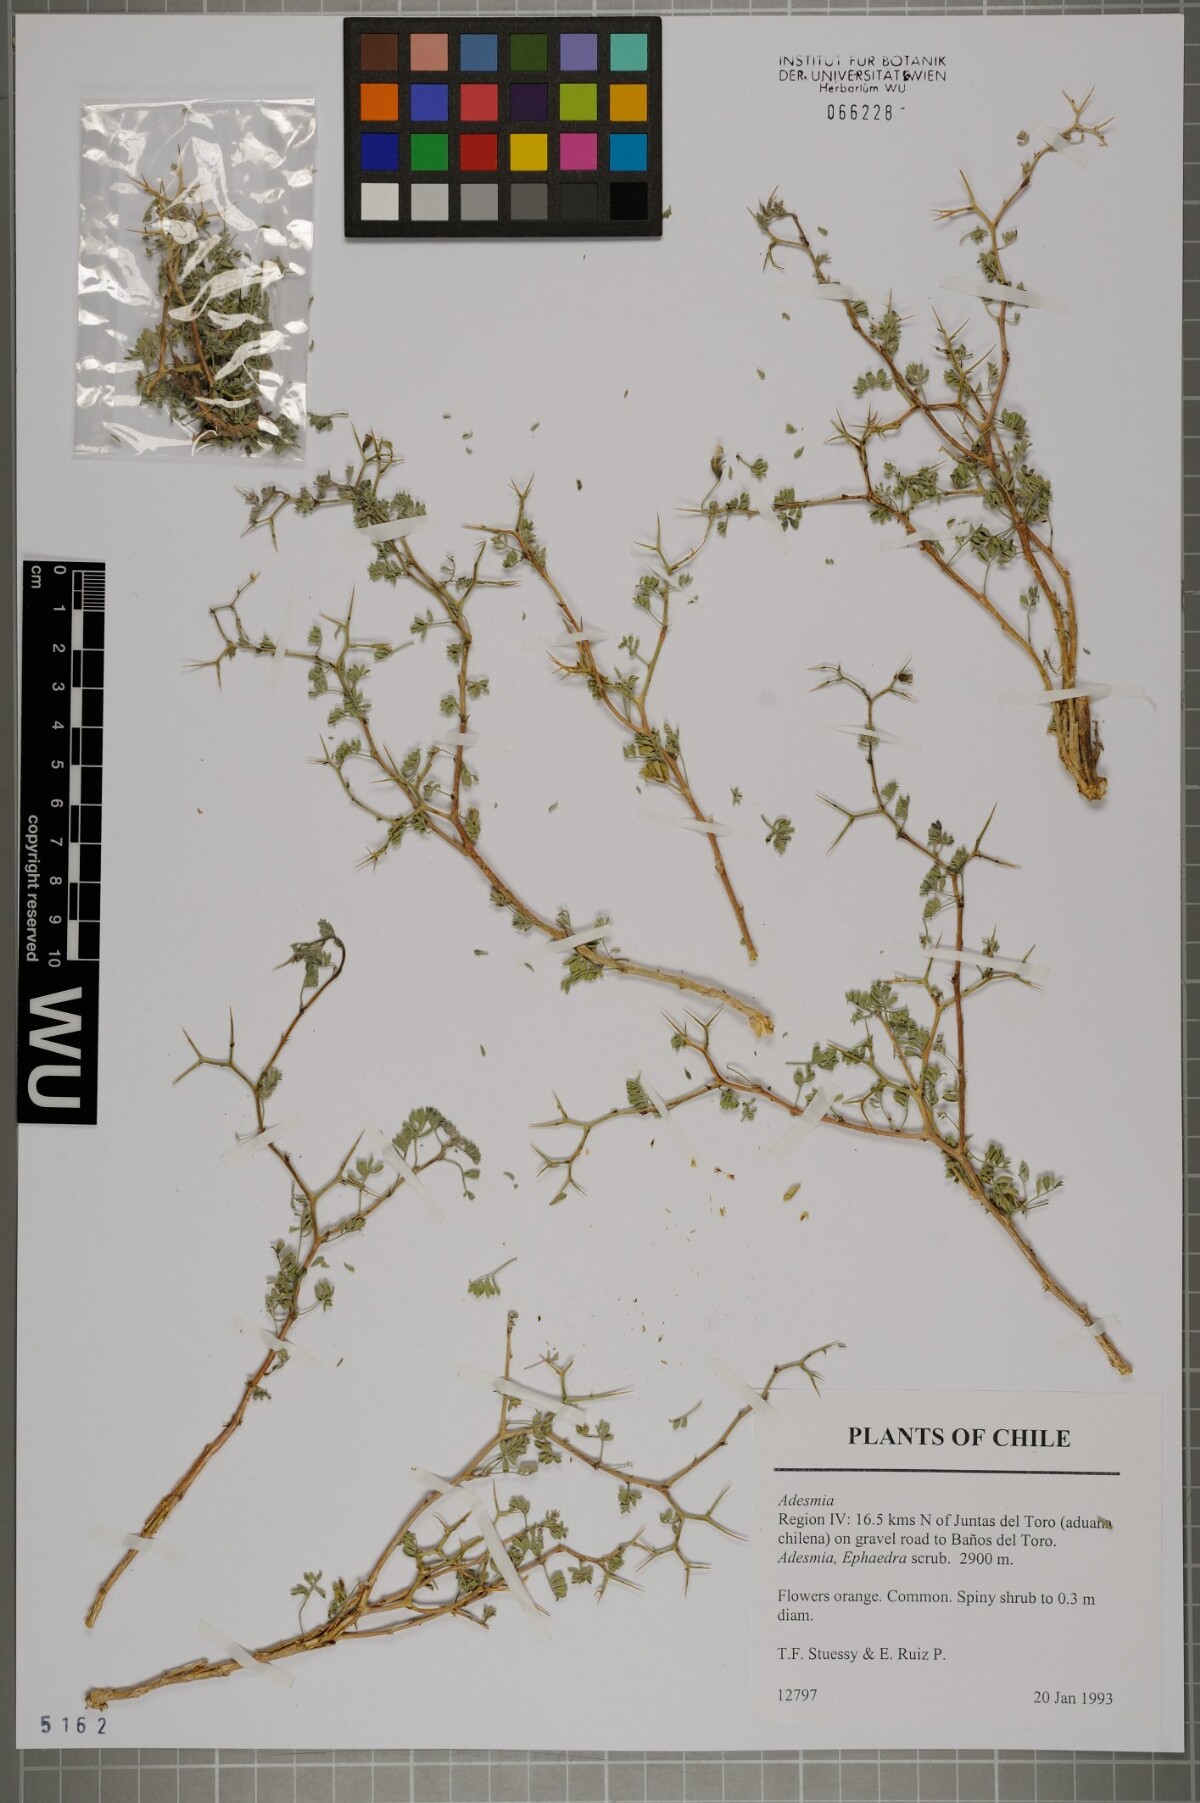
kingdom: Plantae
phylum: Tracheophyta
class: Magnoliopsida
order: Fabales
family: Fabaceae
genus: Adesmia
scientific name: Adesmia
